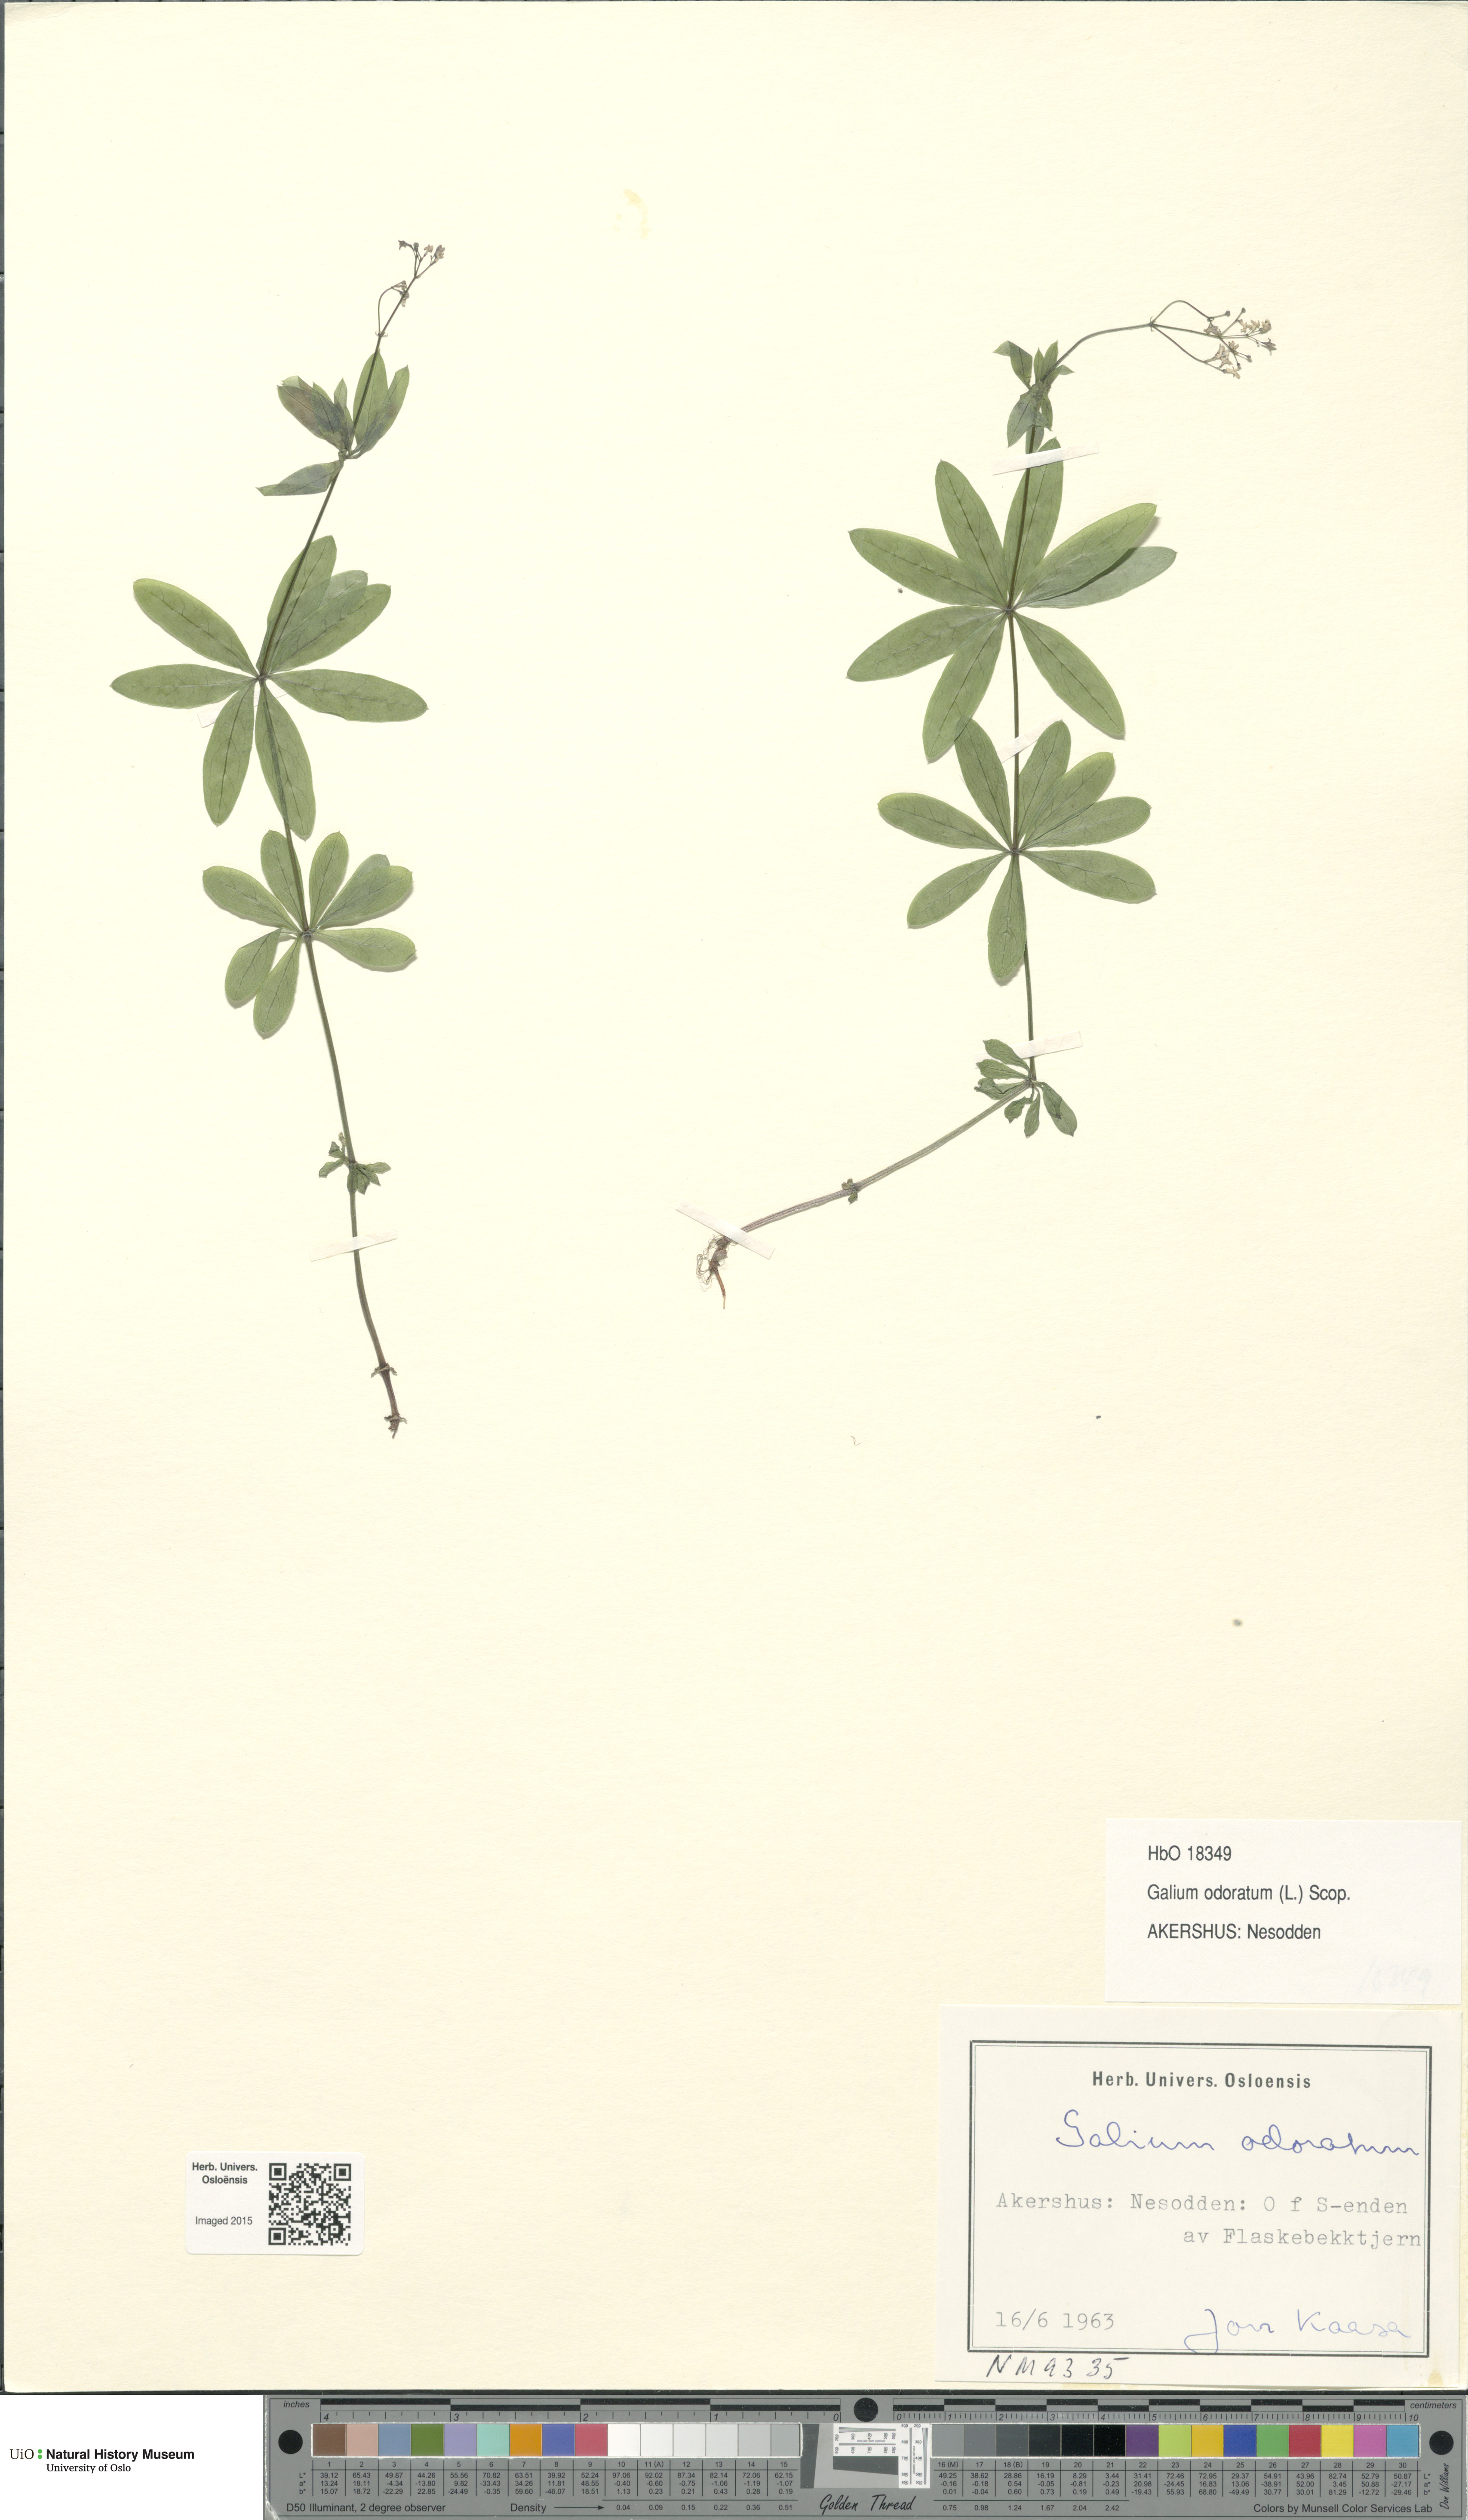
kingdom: Plantae
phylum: Tracheophyta
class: Magnoliopsida
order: Gentianales
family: Rubiaceae
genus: Galium
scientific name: Galium odoratum
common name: Sweet woodruff
